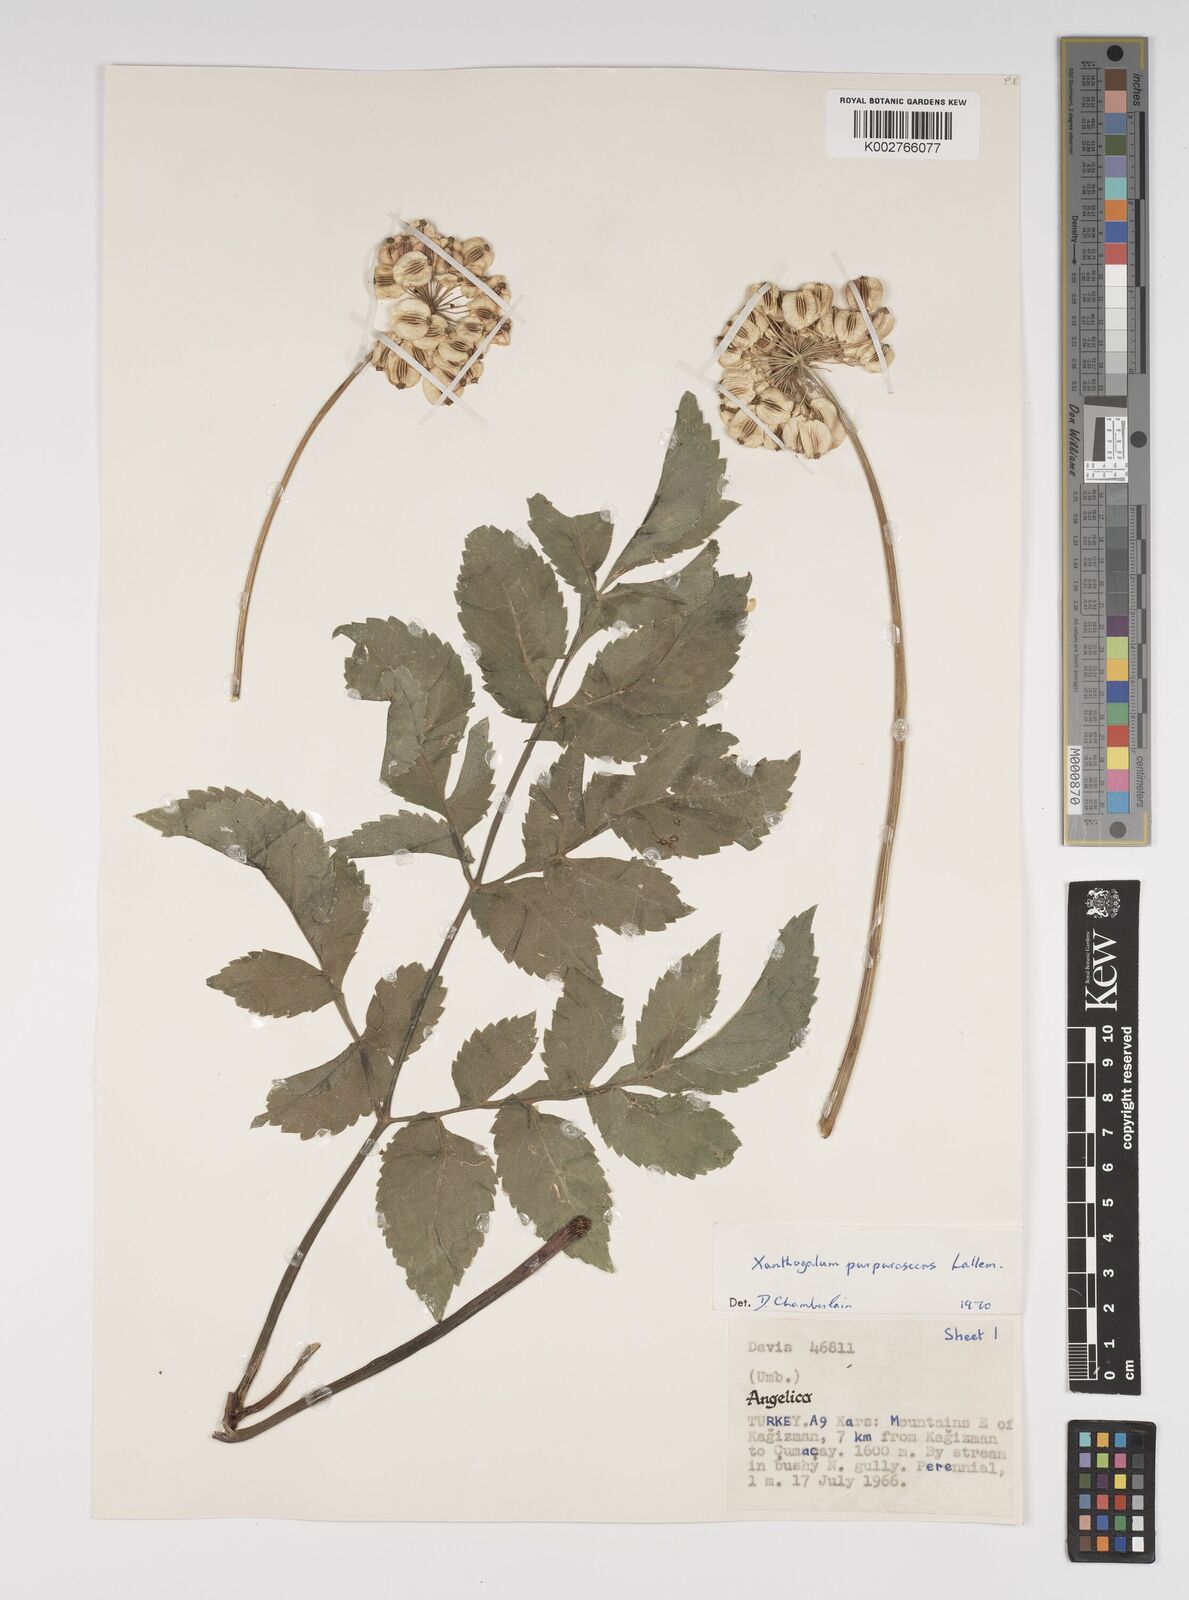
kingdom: Plantae
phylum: Tracheophyta
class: Magnoliopsida
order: Apiales
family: Apiaceae
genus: Xanthogalum
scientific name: Xanthogalum purpurascens
